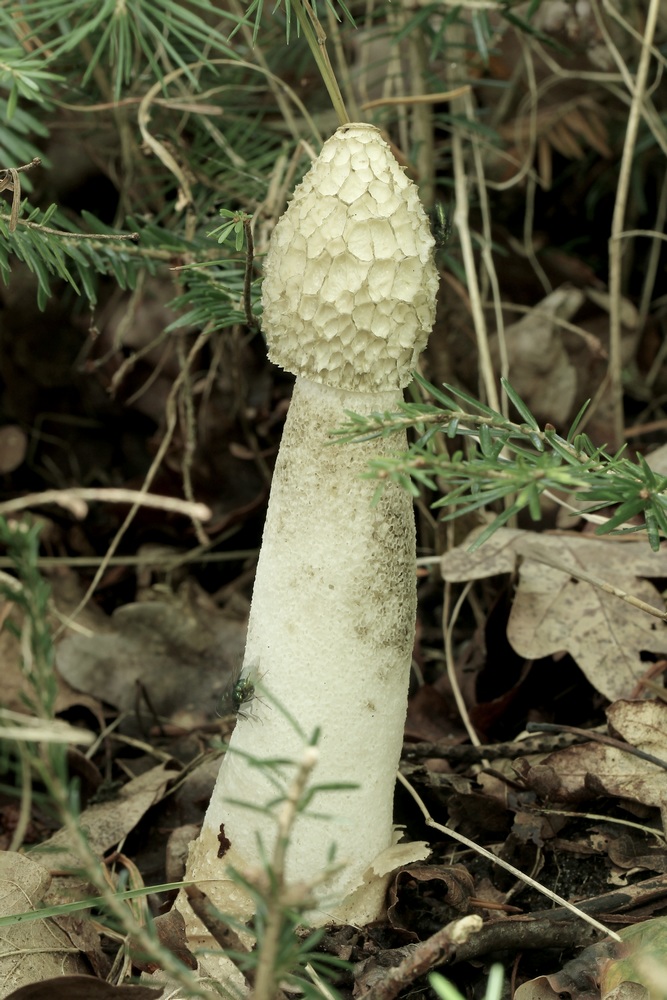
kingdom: Fungi
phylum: Basidiomycota
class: Agaricomycetes
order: Phallales
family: Phallaceae
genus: Phallus
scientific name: Phallus impudicus
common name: almindelig stinksvamp
